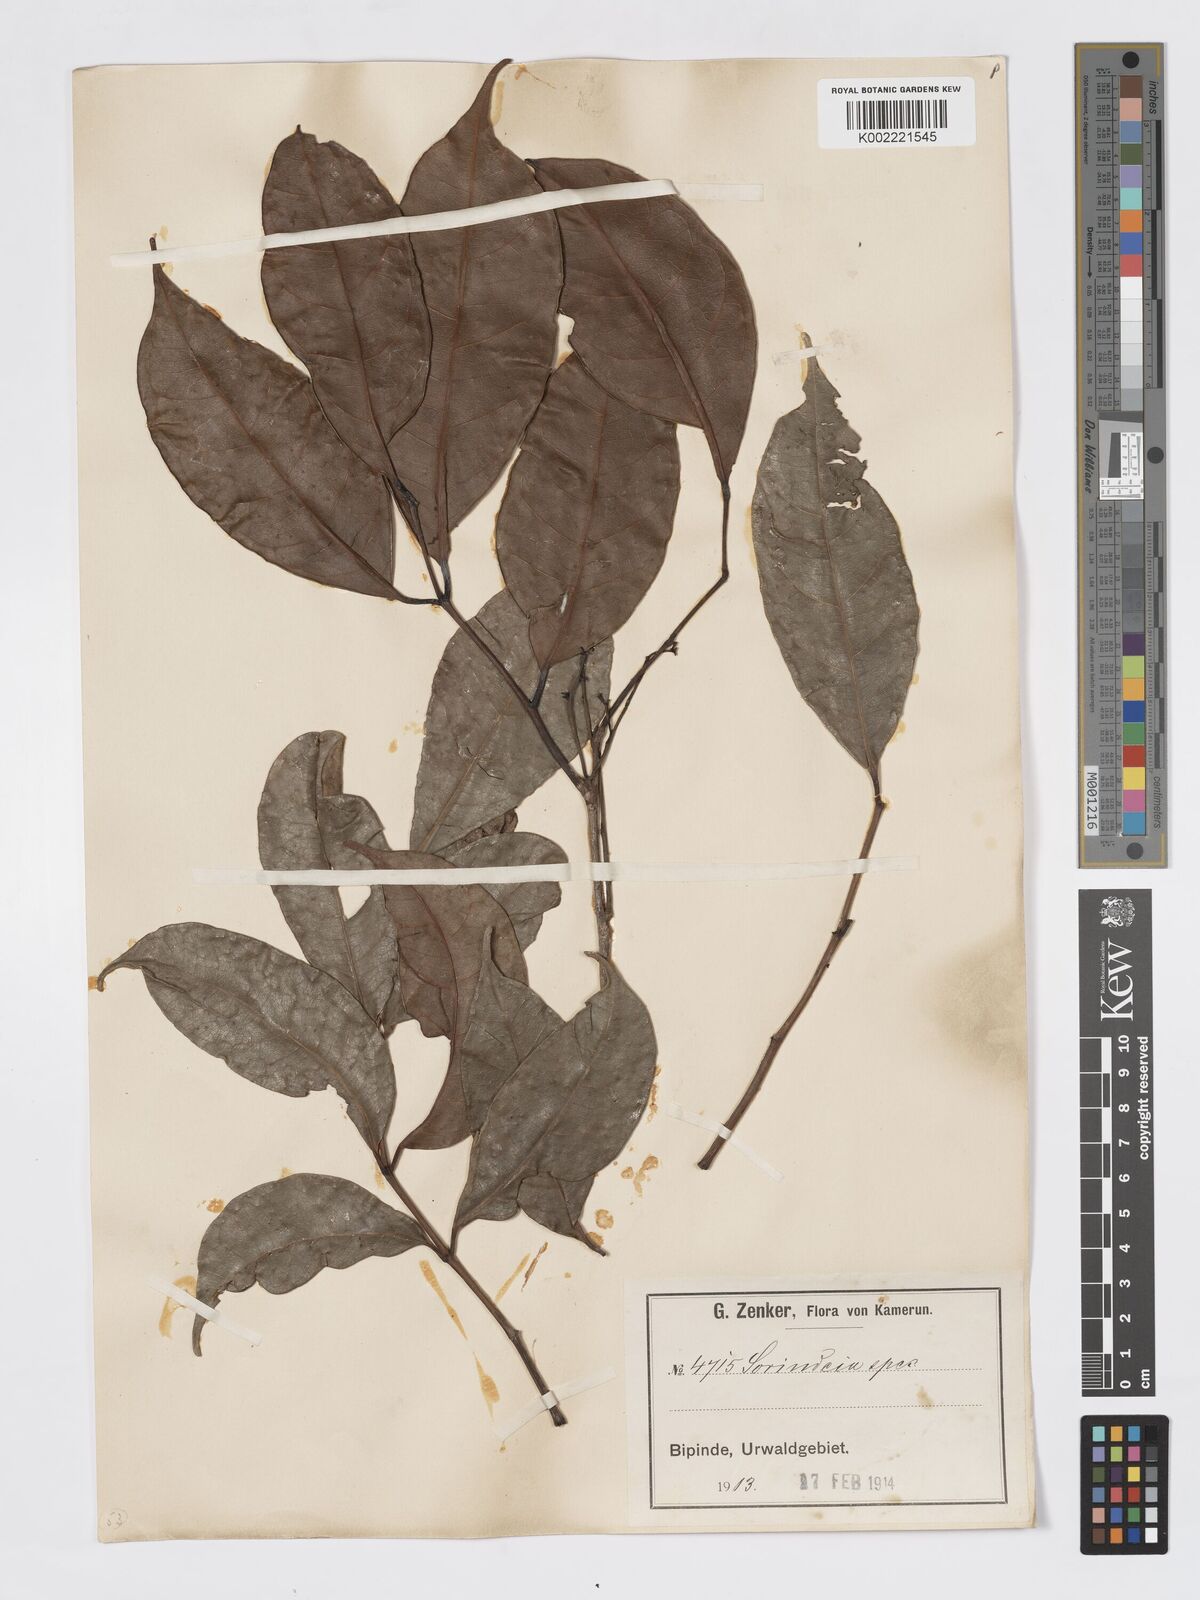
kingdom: Plantae
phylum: Tracheophyta
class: Magnoliopsida
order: Sapindales
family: Burseraceae
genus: Pachylobus
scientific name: Pachylobus trimerus
